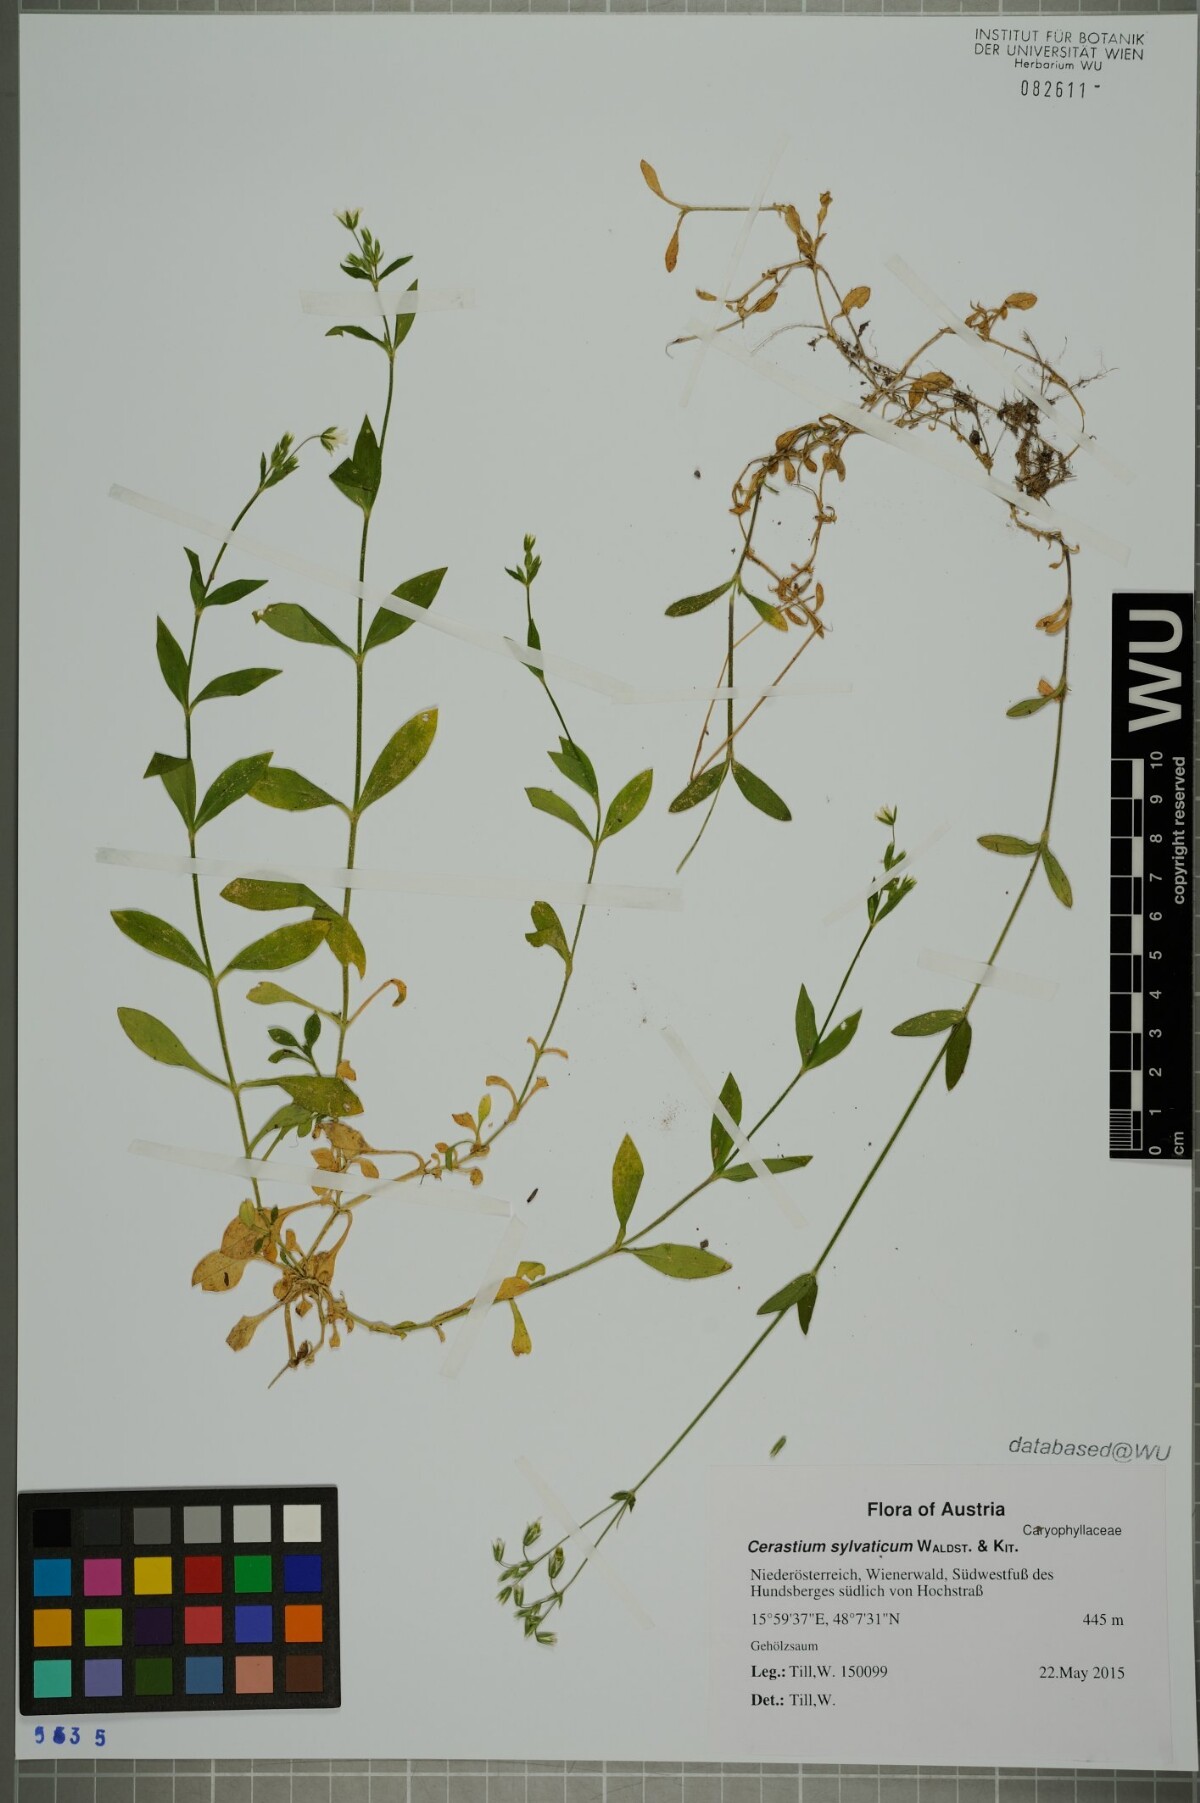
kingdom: Plantae
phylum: Tracheophyta
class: Magnoliopsida
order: Caryophyllales
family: Caryophyllaceae
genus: Cerastium
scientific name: Cerastium sylvaticum
